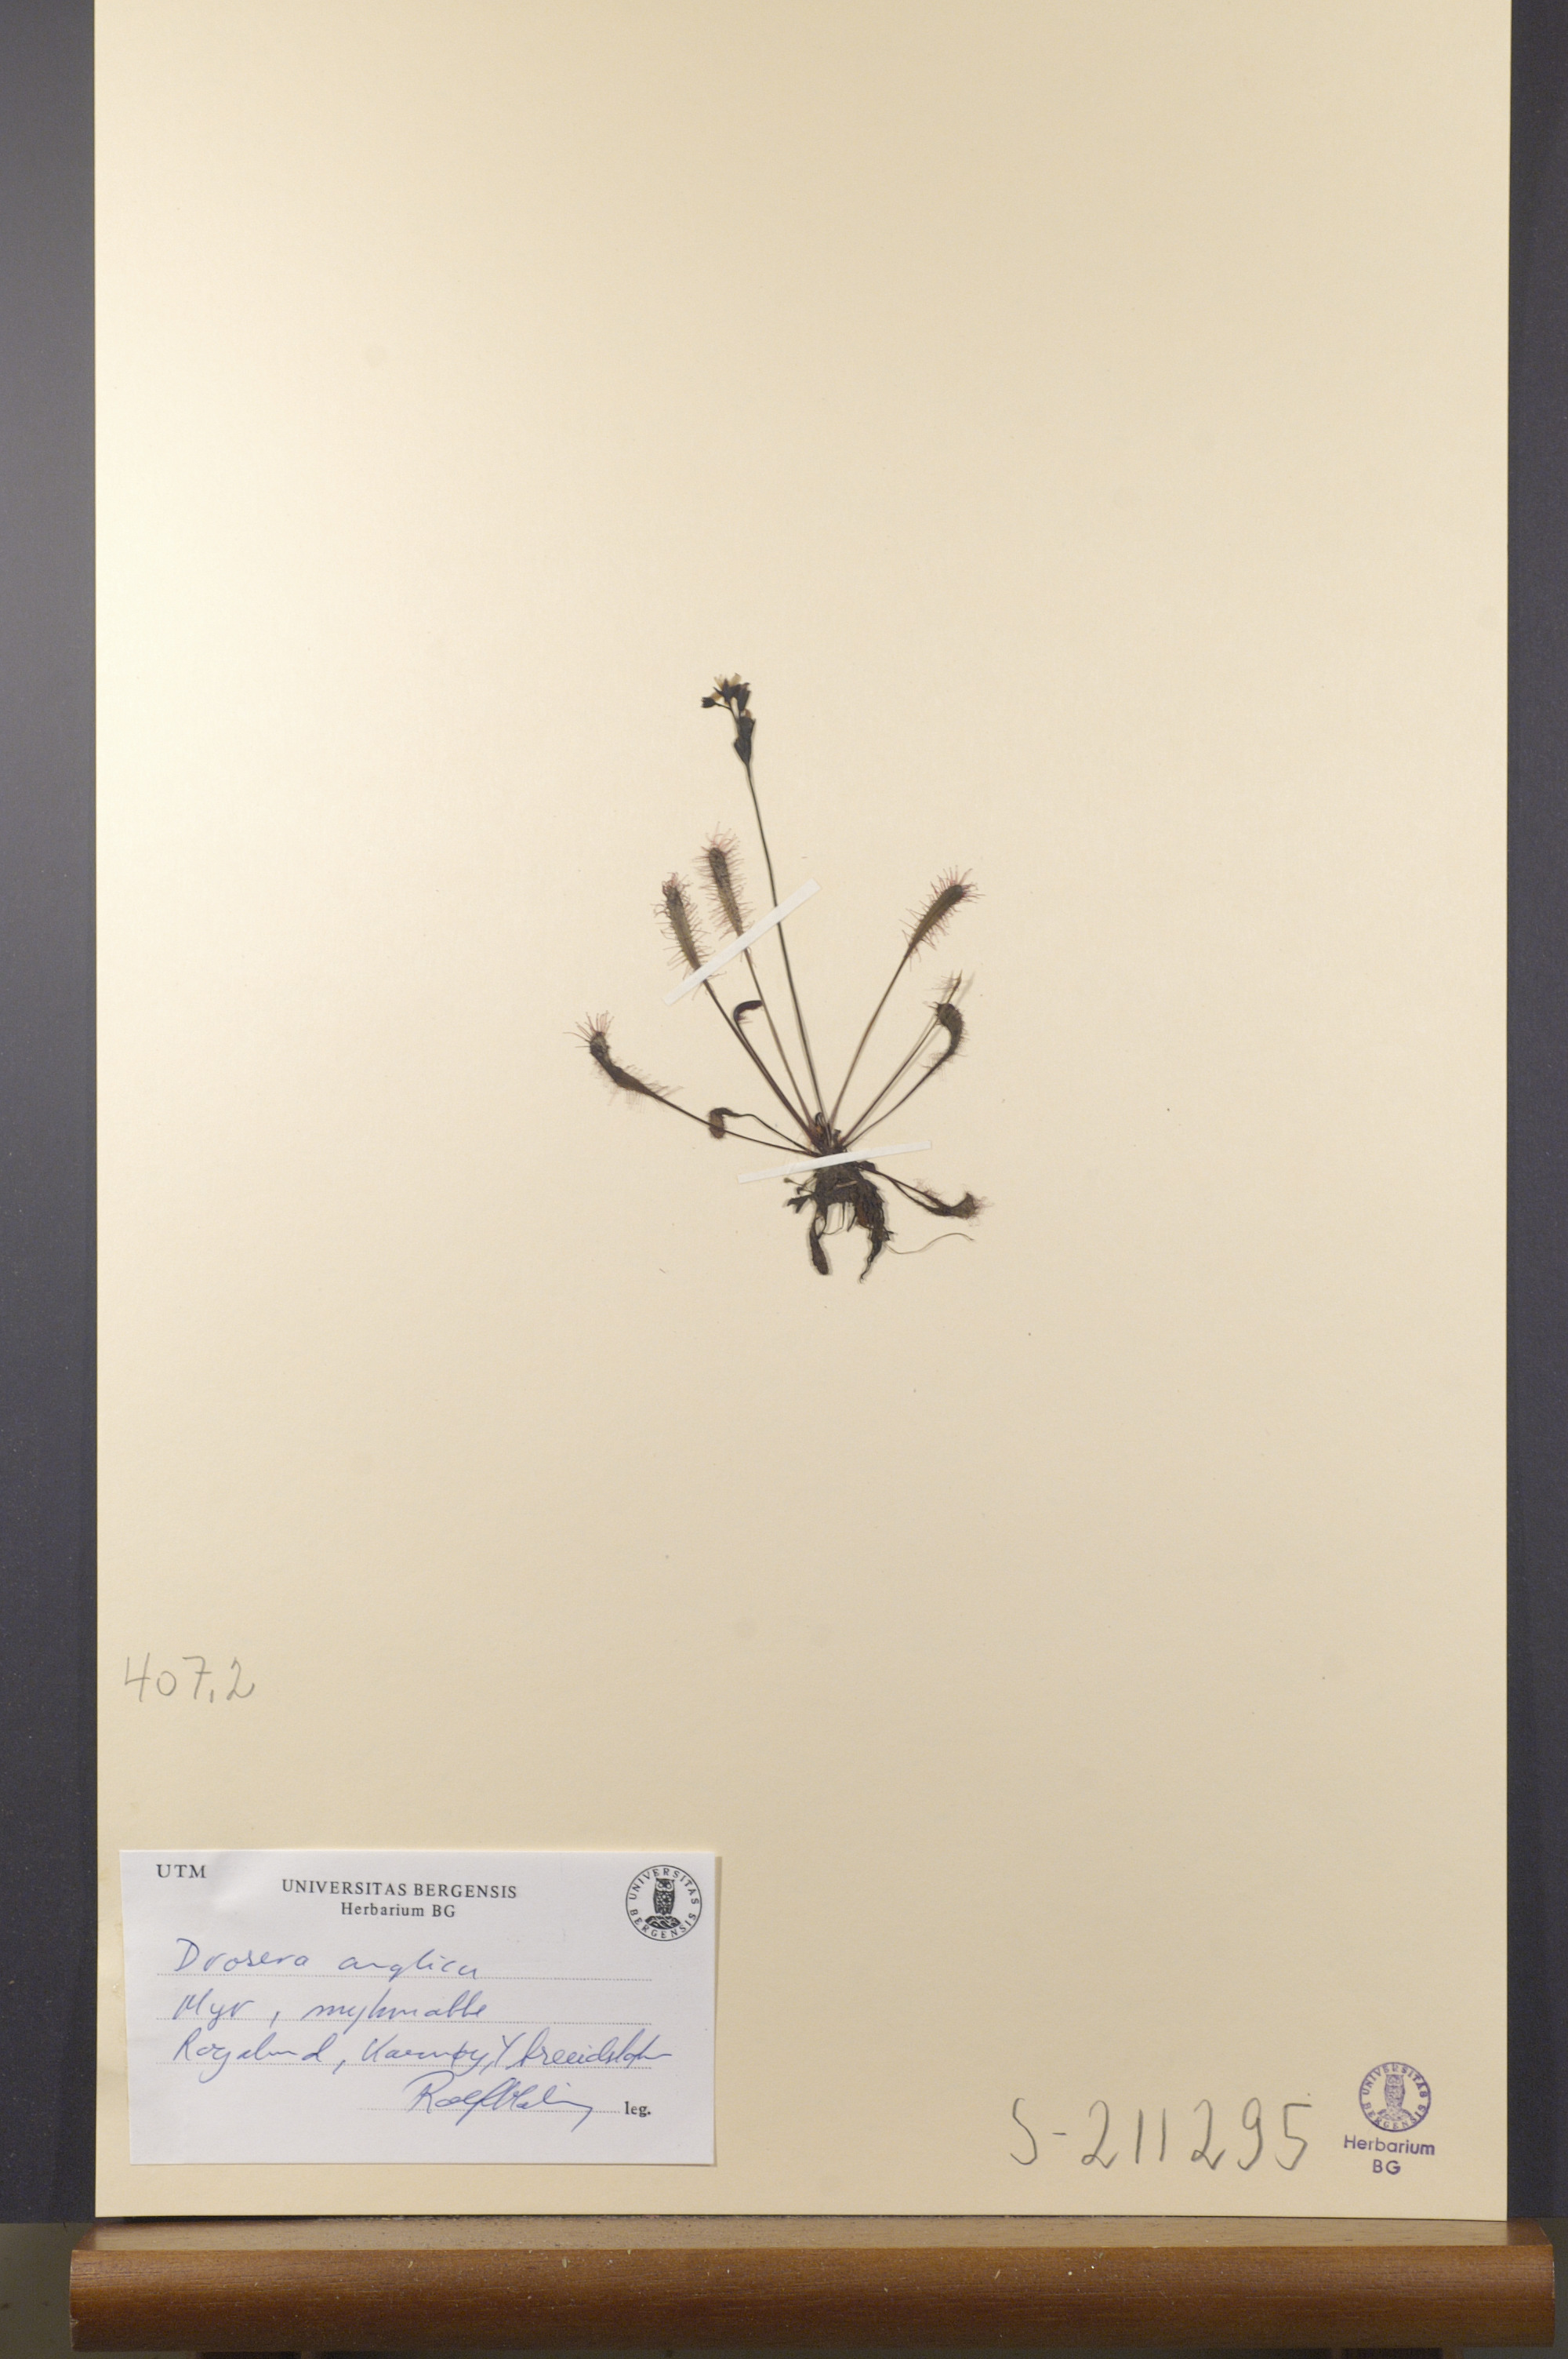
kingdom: Plantae
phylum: Tracheophyta
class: Magnoliopsida
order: Caryophyllales
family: Droseraceae
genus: Drosera
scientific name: Drosera anglica
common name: Great sundew
